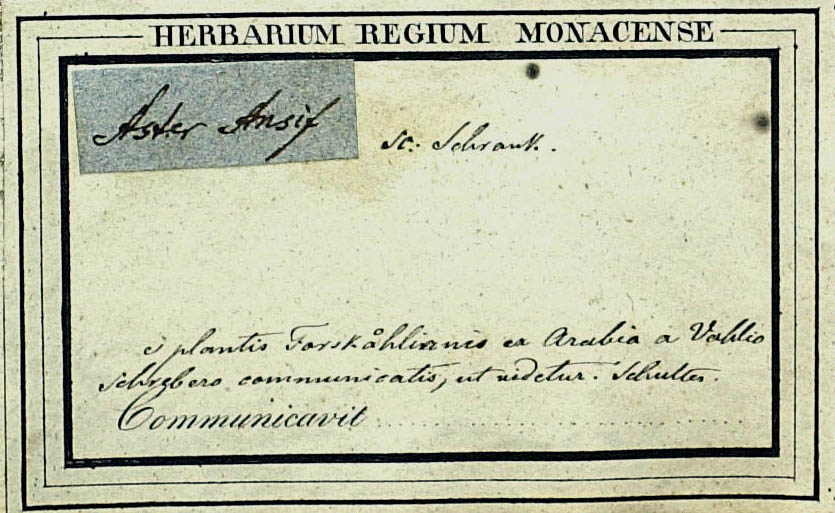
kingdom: Plantae
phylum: Tracheophyta
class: Magnoliopsida
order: Asterales
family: Asteraceae
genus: Arrowsmithia
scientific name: Arrowsmithia ericifolia
